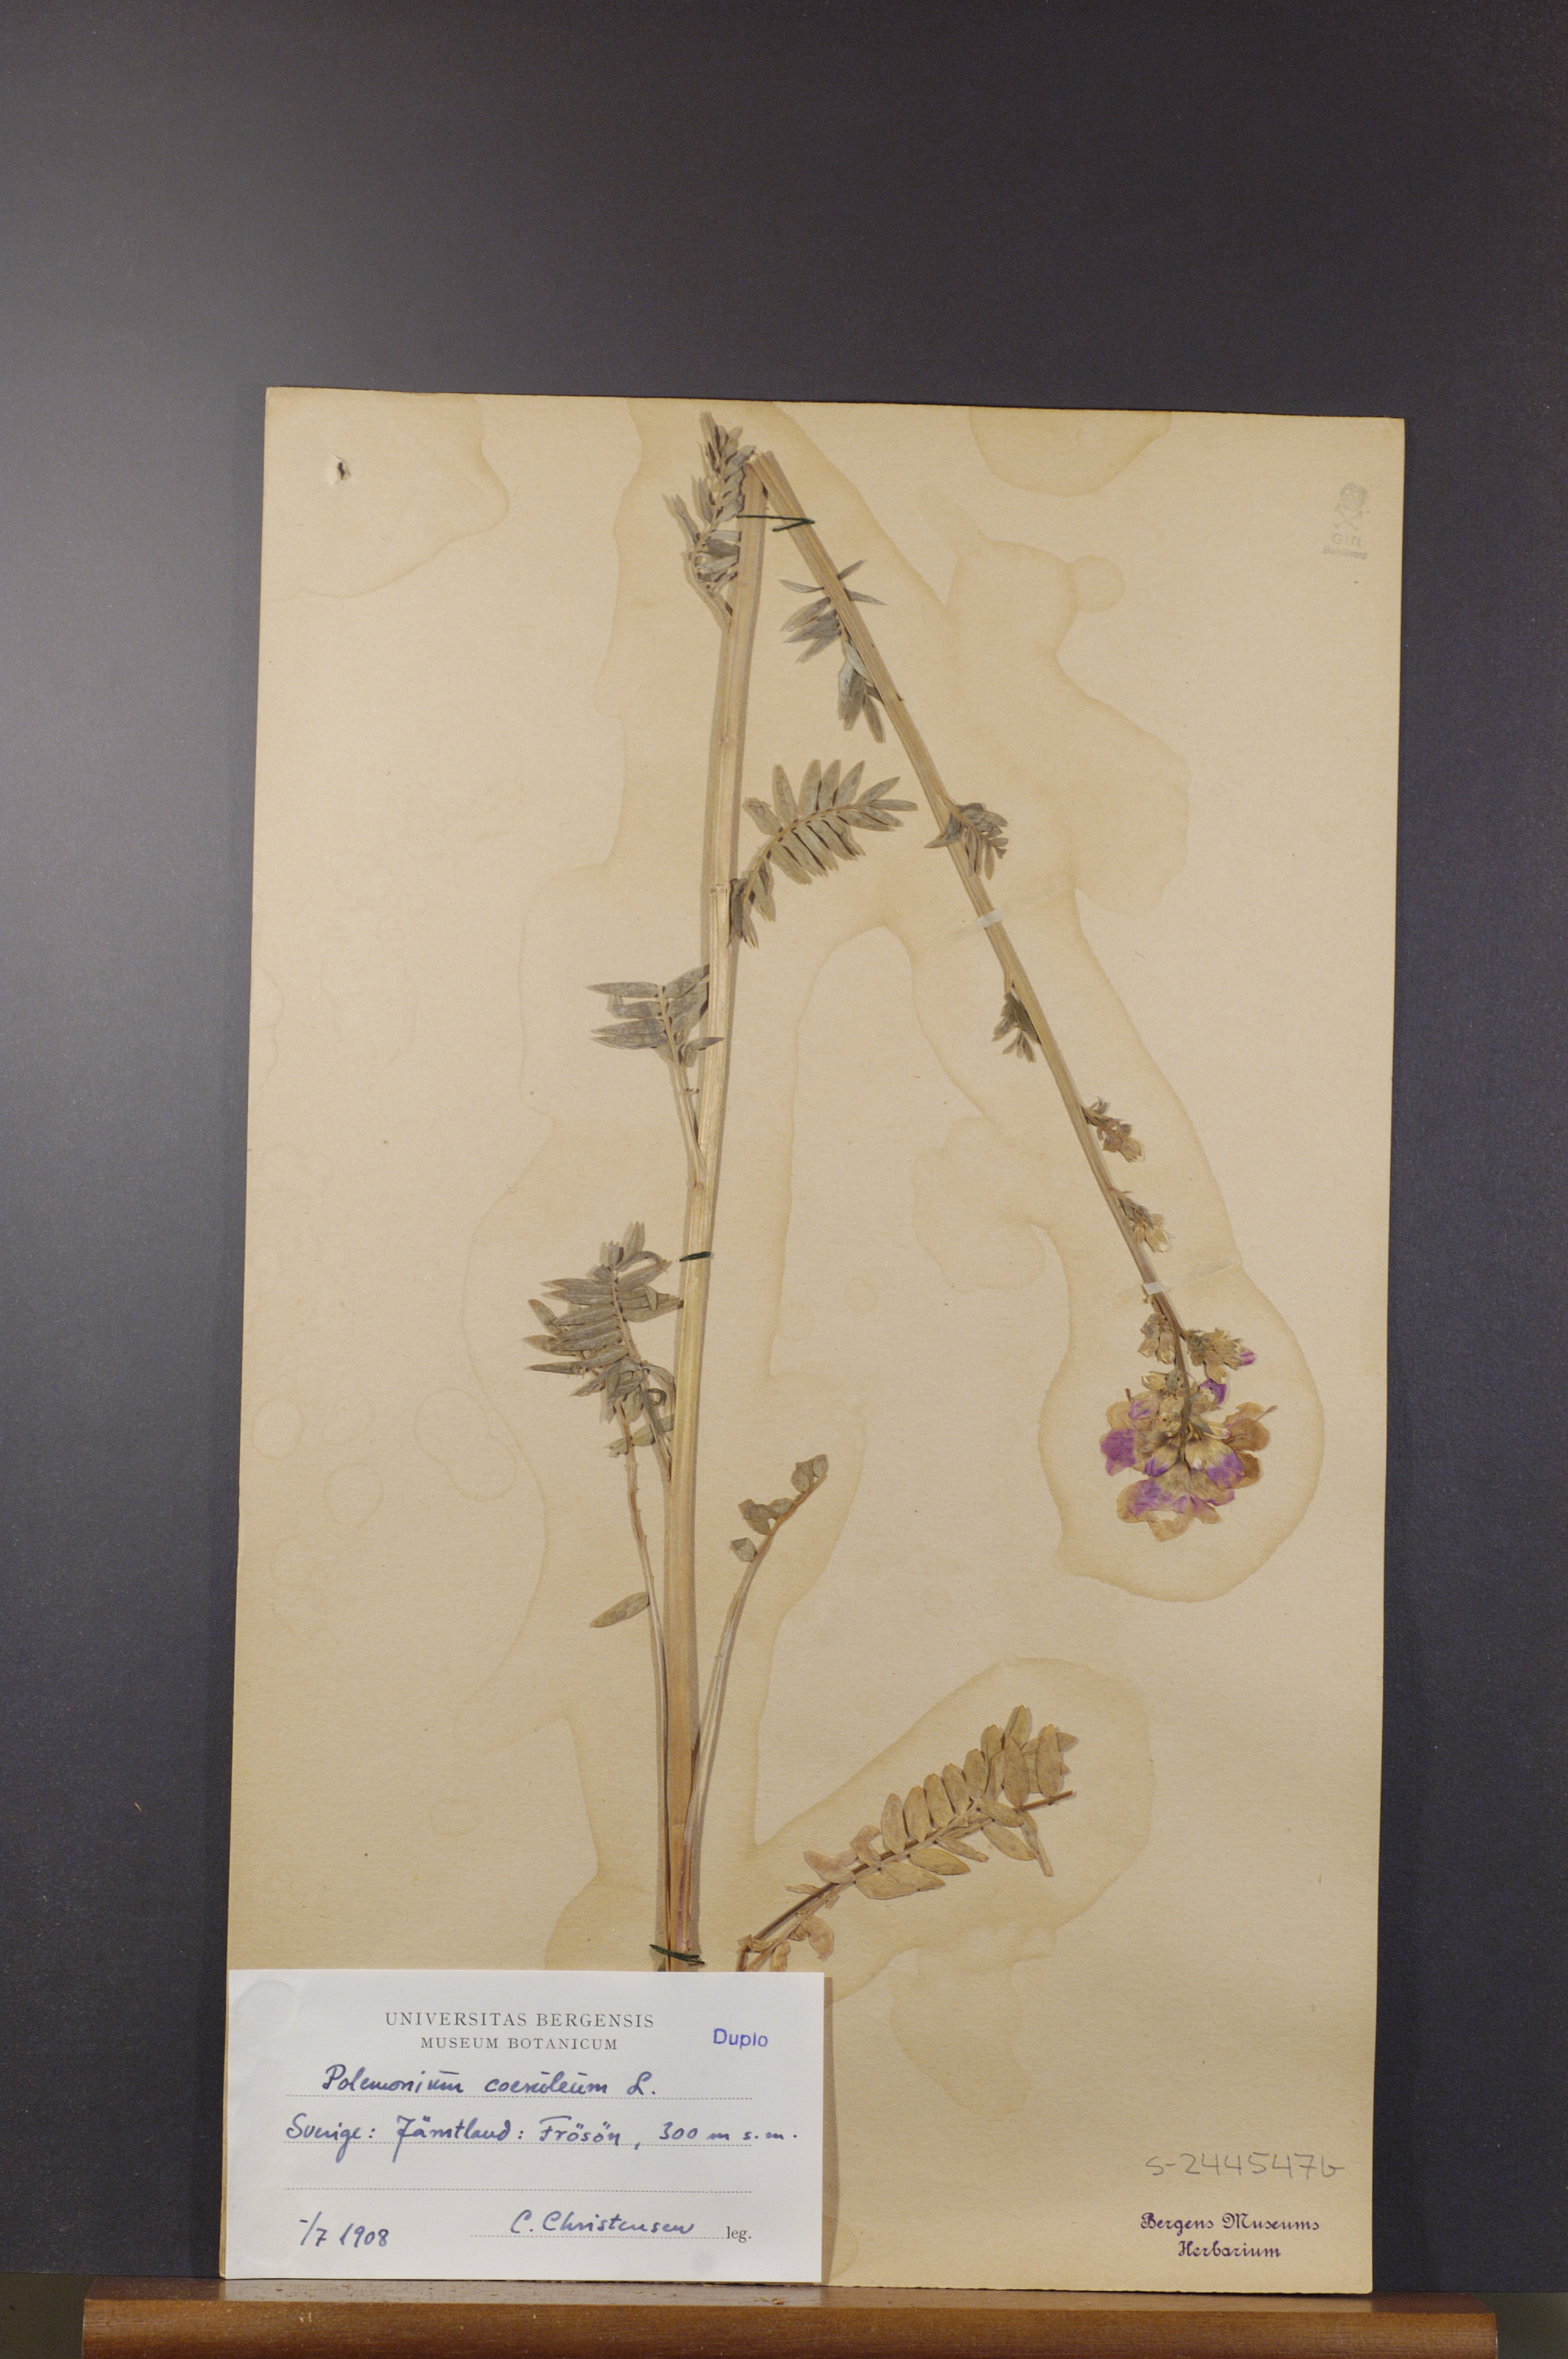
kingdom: Plantae
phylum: Tracheophyta
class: Magnoliopsida
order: Ericales
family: Polemoniaceae
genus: Polemonium
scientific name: Polemonium caeruleum
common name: Jacob's-ladder
